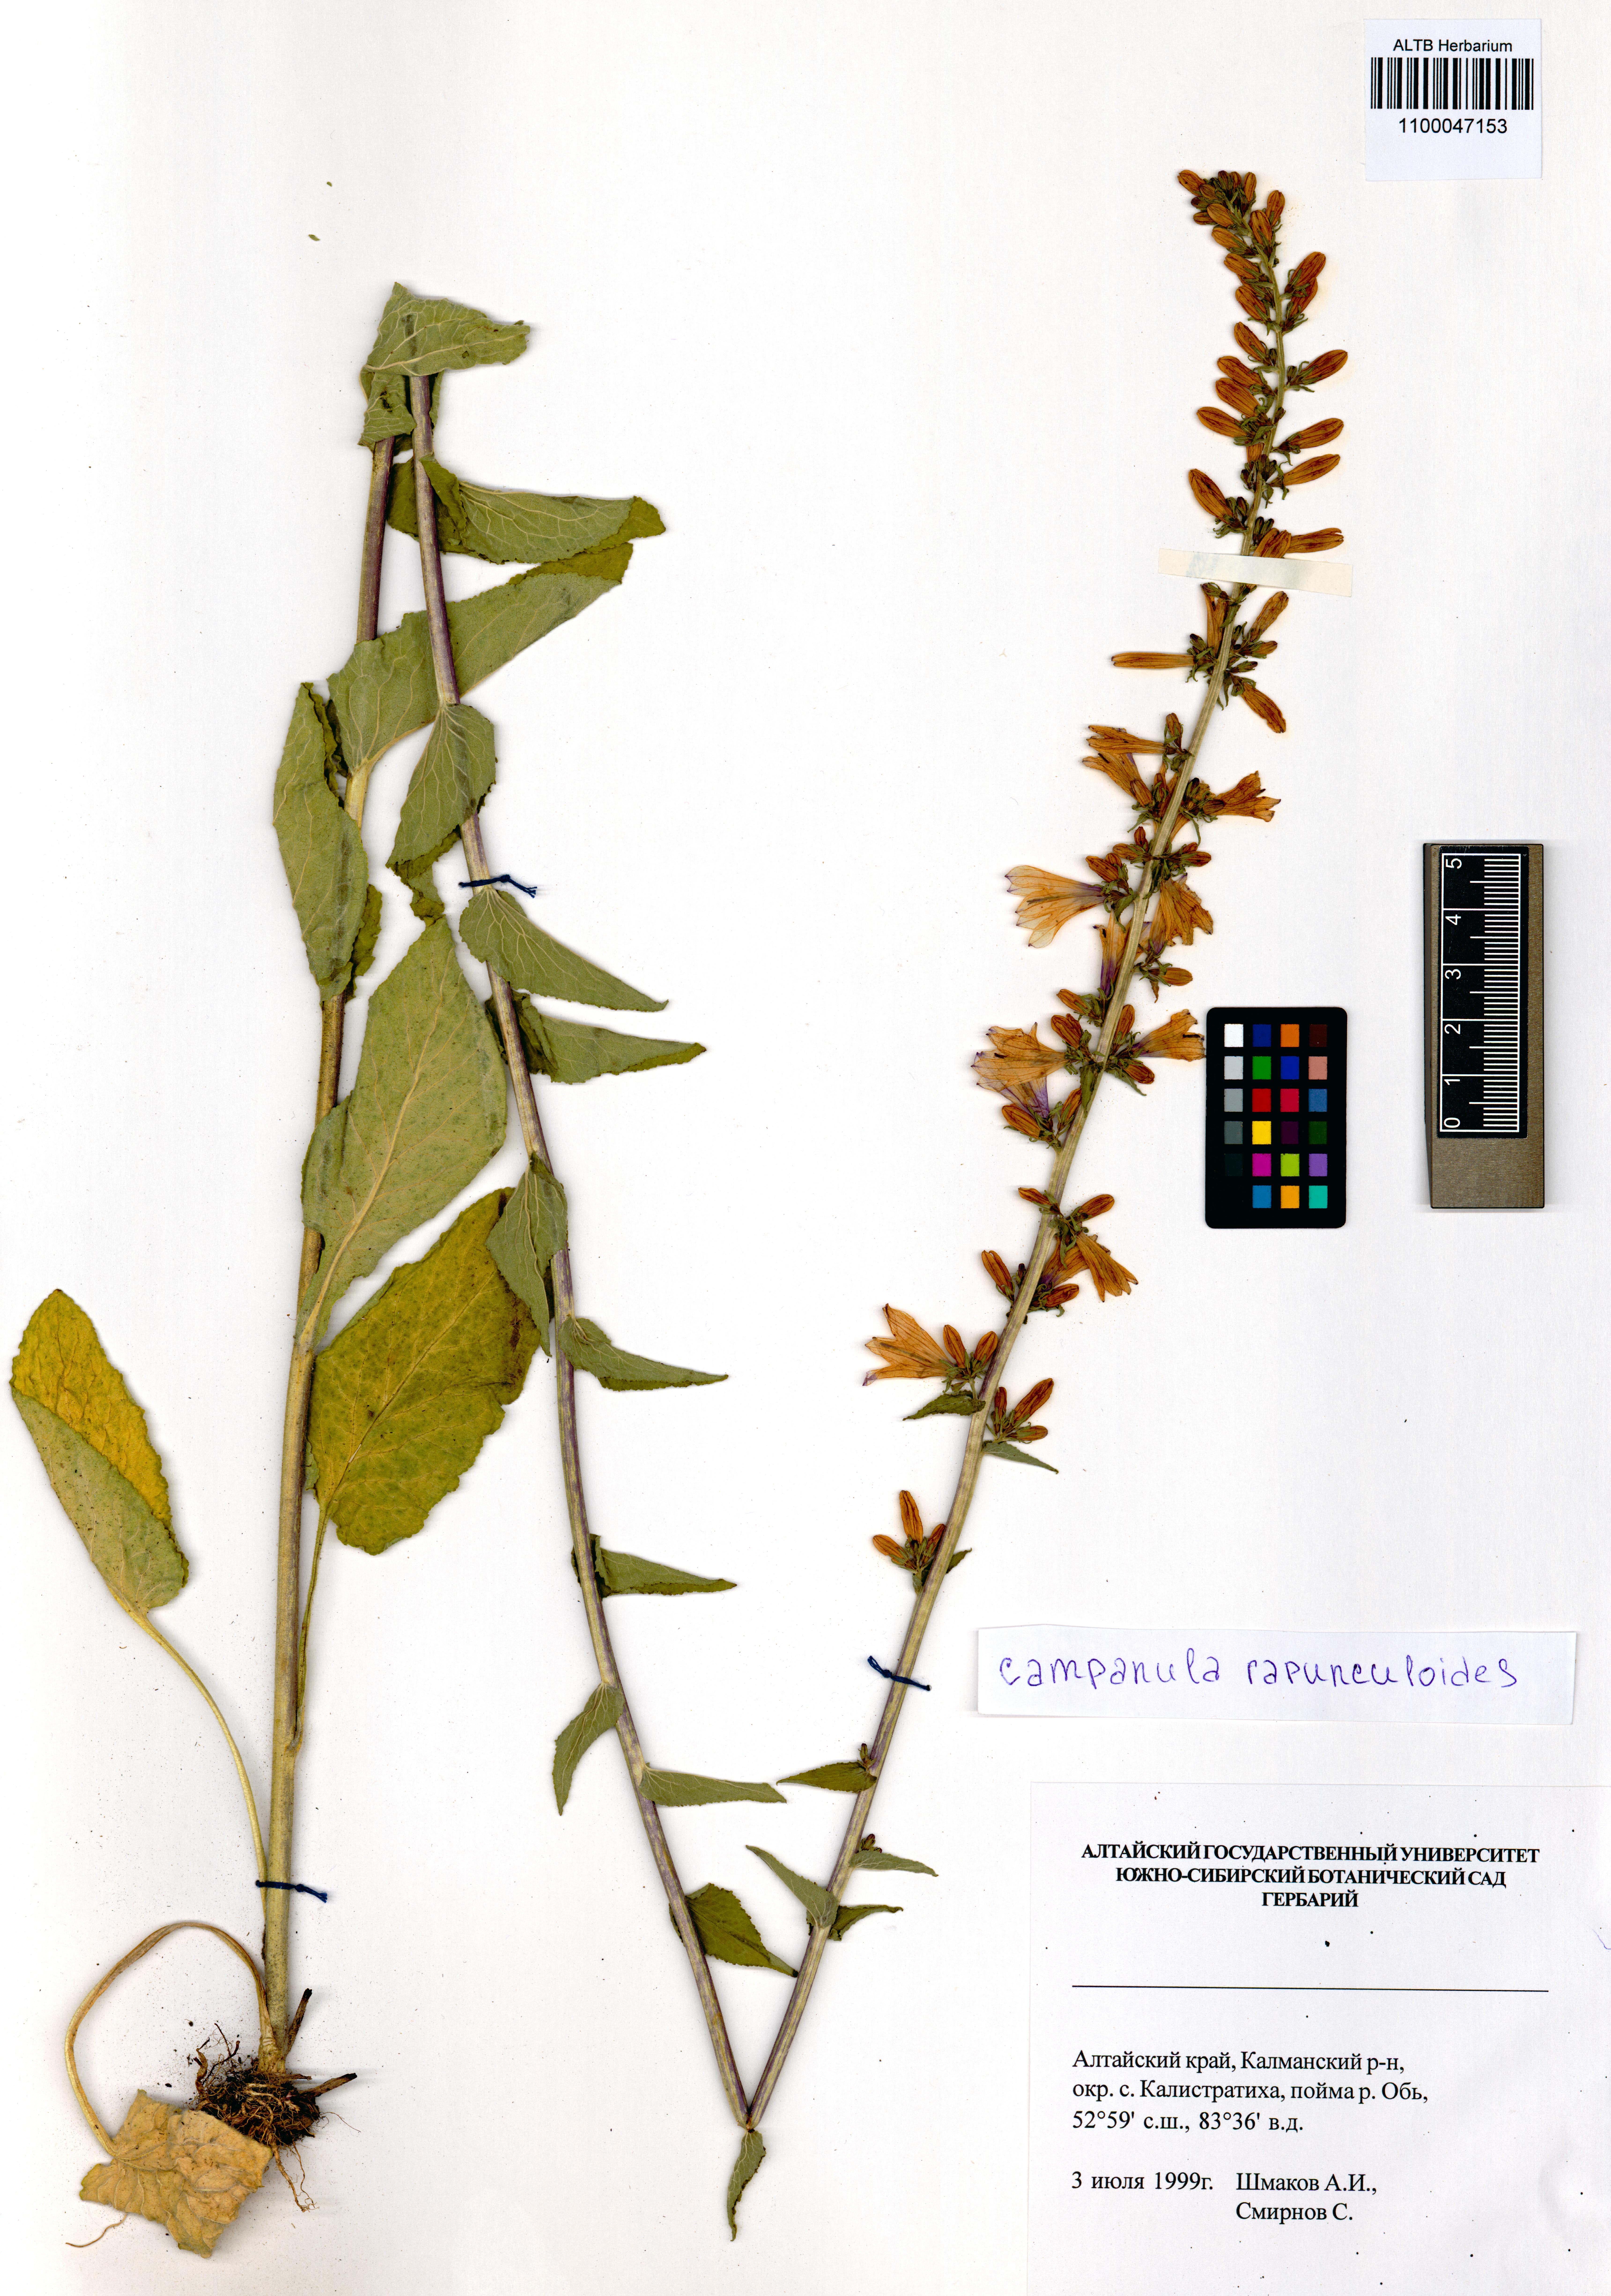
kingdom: Plantae
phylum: Tracheophyta
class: Magnoliopsida
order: Asterales
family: Campanulaceae
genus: Campanula
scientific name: Campanula rapunculoides
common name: Creeping bellflower
